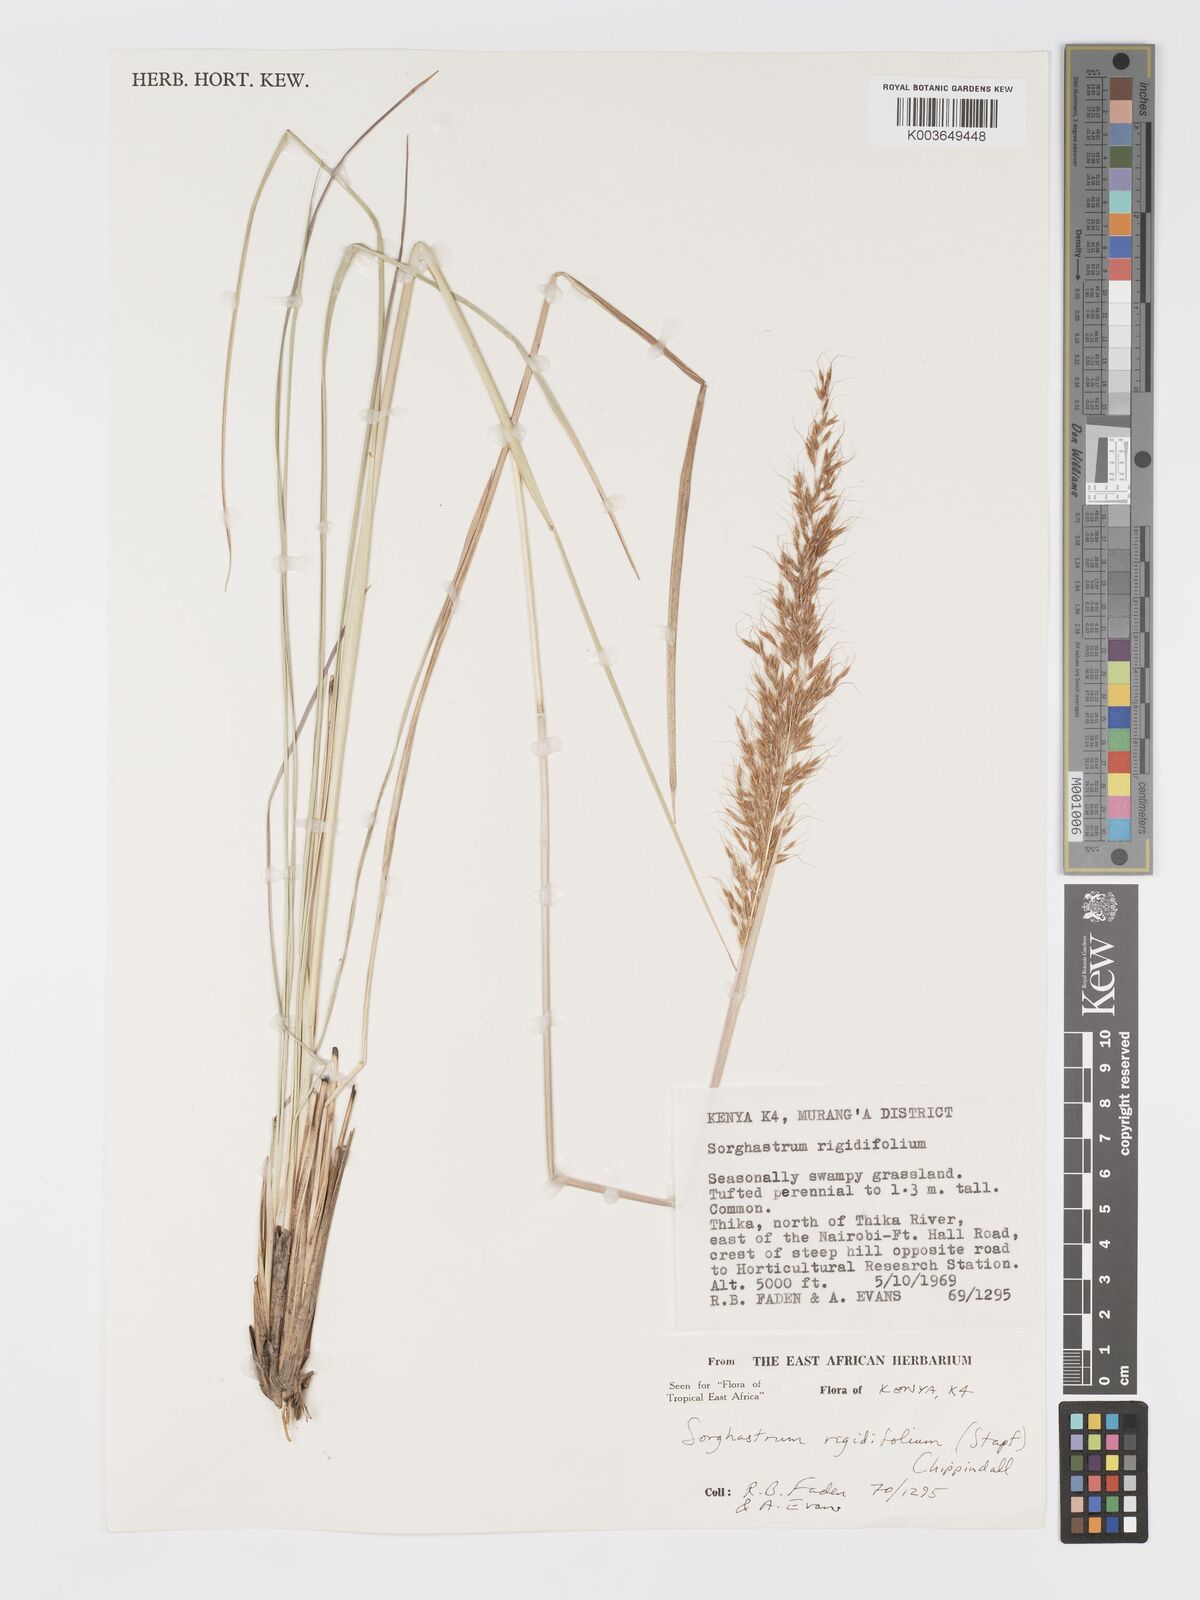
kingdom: Plantae
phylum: Tracheophyta
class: Liliopsida
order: Poales
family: Poaceae
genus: Sorghastrum
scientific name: Sorghastrum stipoides
